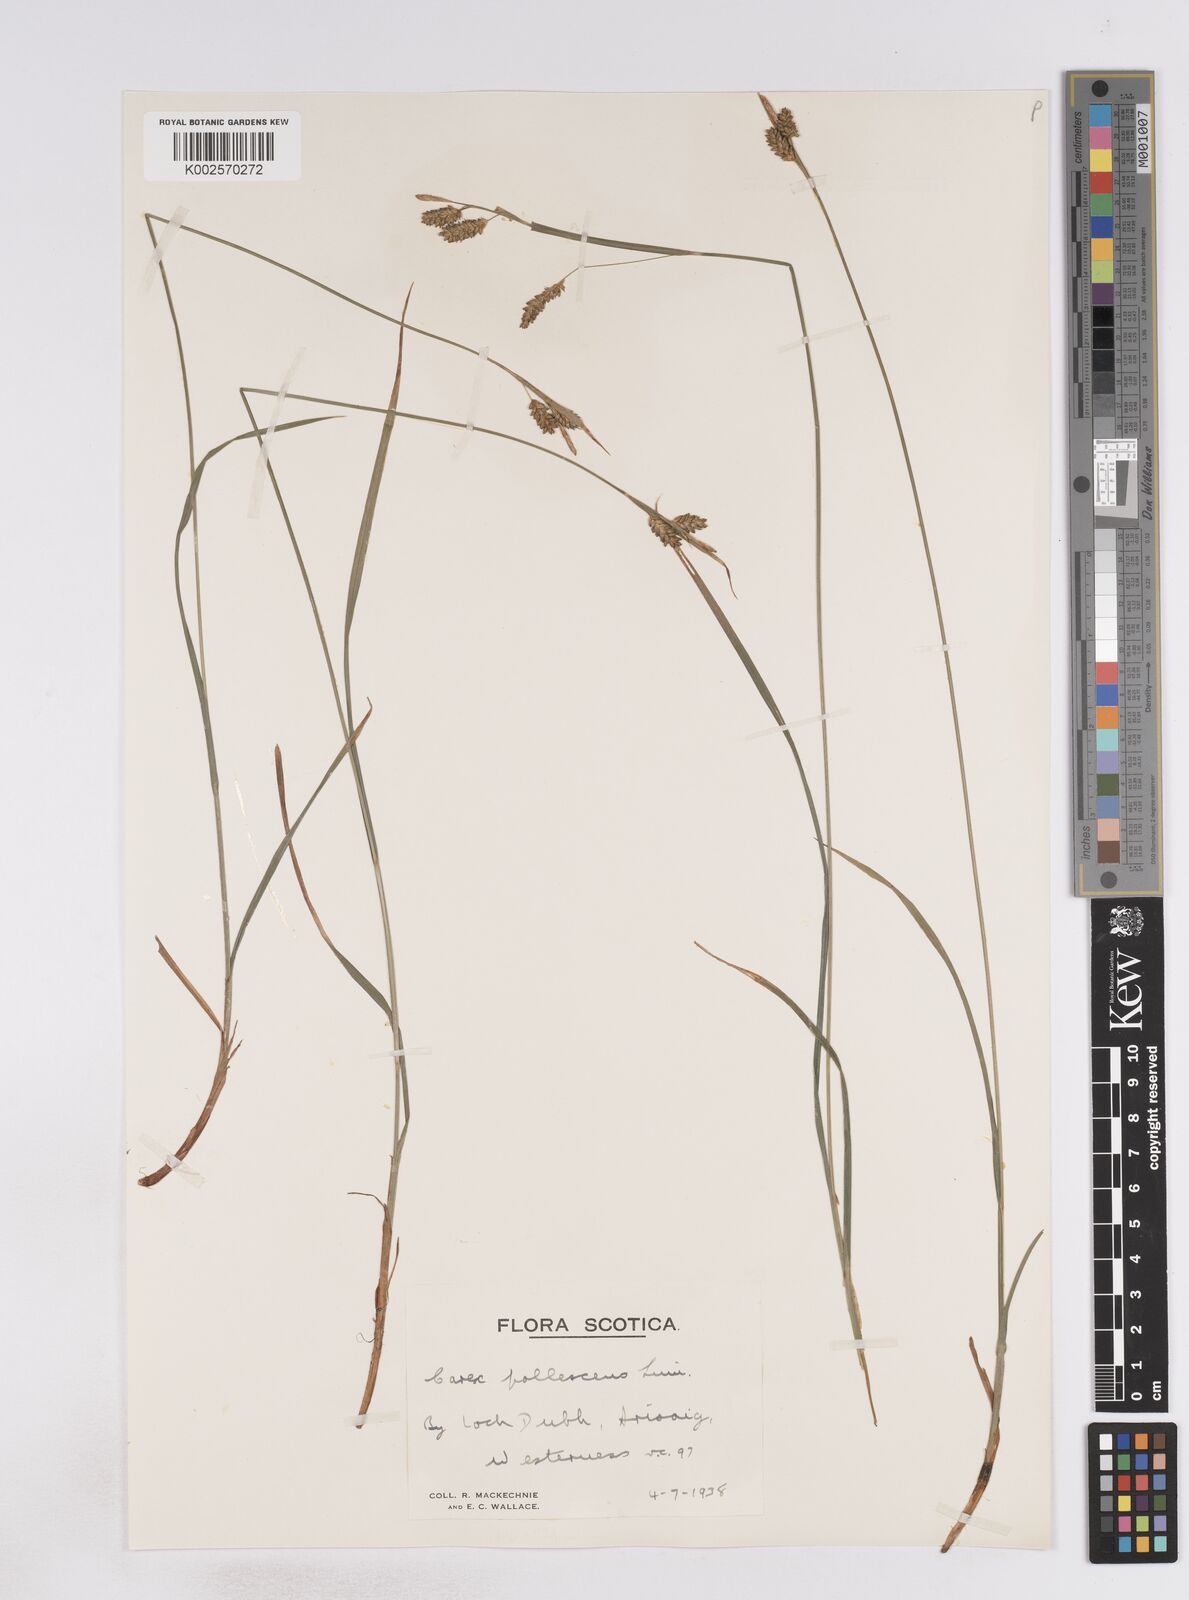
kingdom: Plantae
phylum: Tracheophyta
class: Liliopsida
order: Poales
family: Cyperaceae
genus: Carex
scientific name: Carex pallescens
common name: Pale sedge
